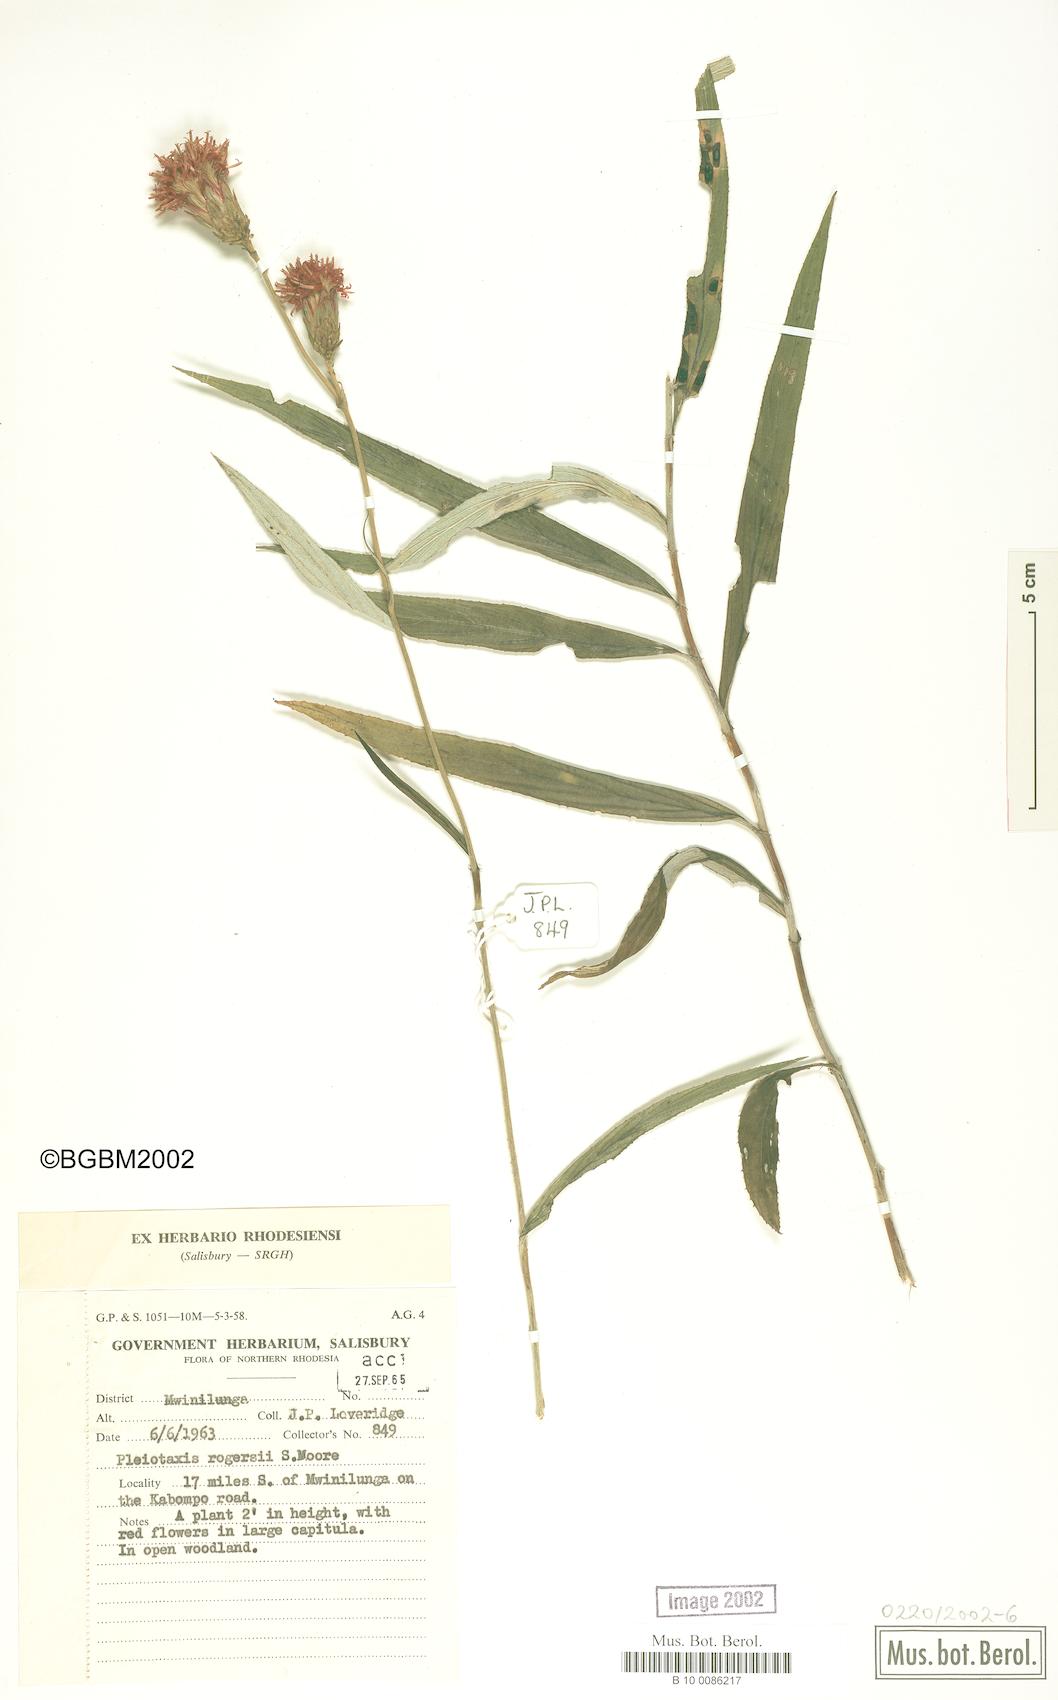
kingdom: Plantae
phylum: Tracheophyta
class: Magnoliopsida
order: Asterales
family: Asteraceae
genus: Pleiotaxis
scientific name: Pleiotaxis rogersii
